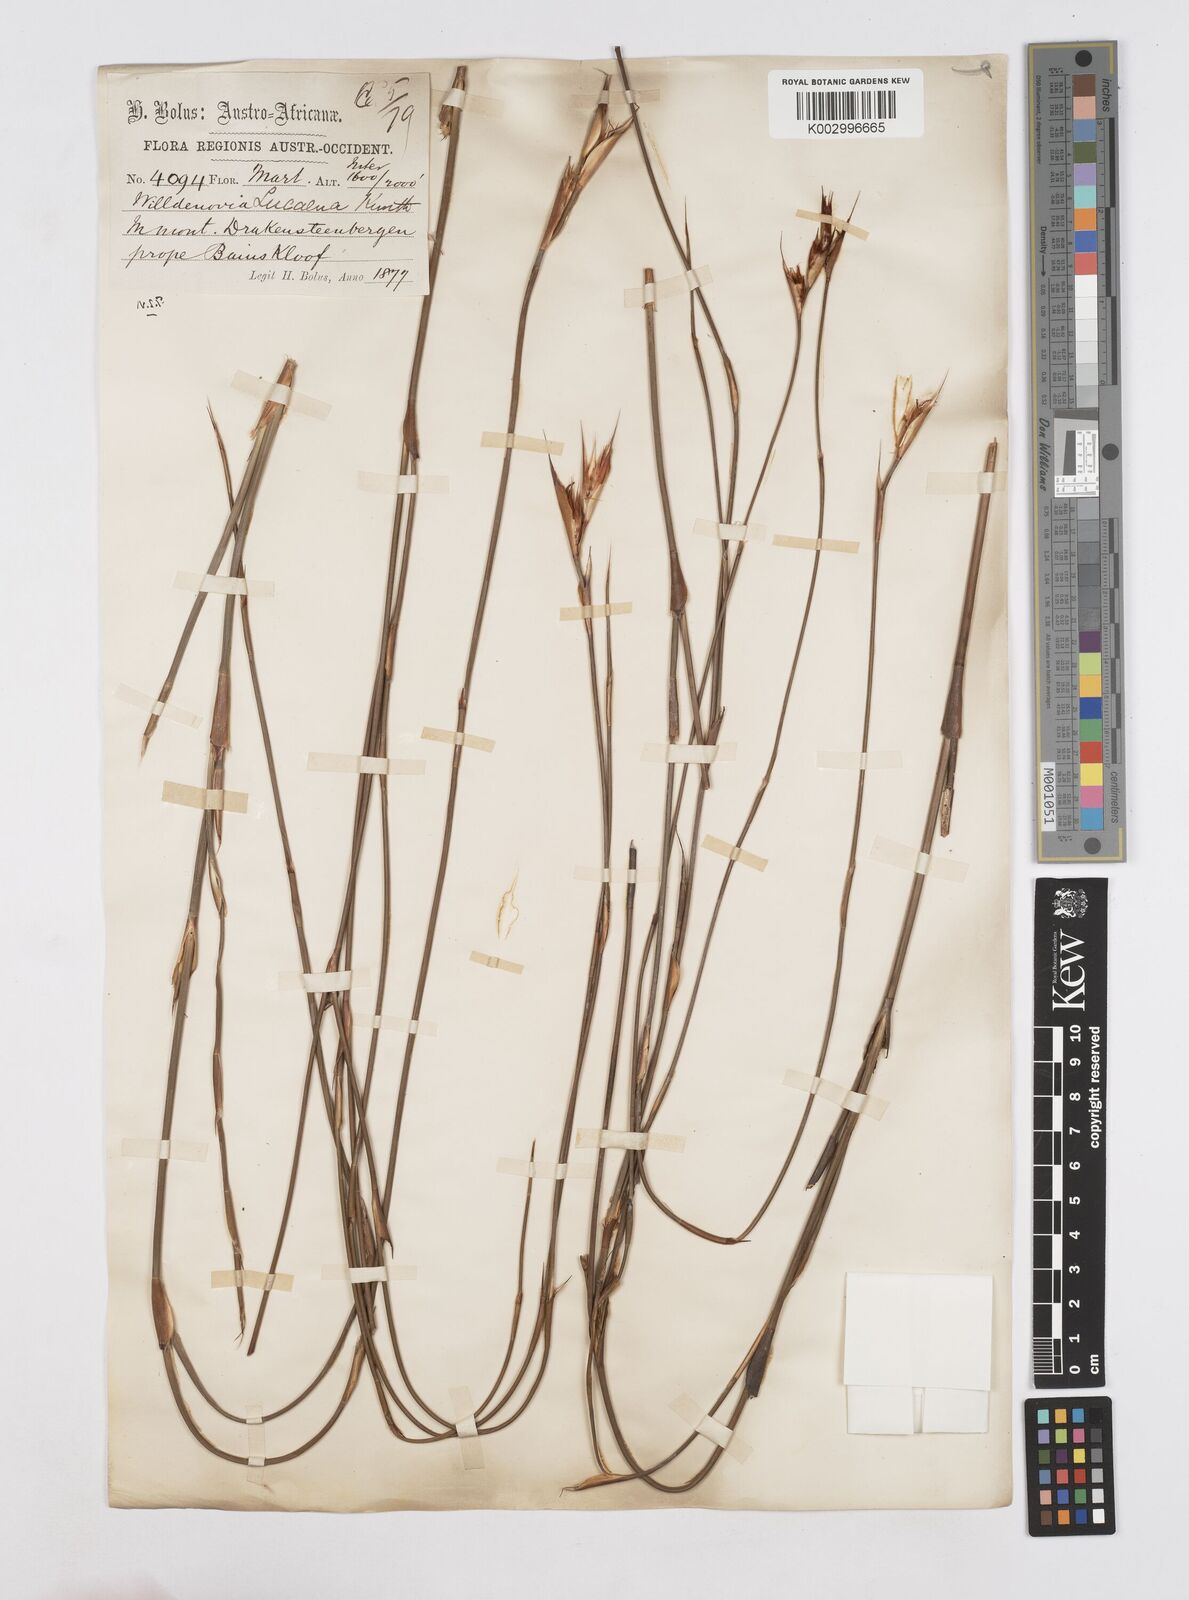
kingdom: Plantae
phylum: Tracheophyta
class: Liliopsida
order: Poales
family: Restionaceae
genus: Willdenowia
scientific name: Willdenowia glomerata
